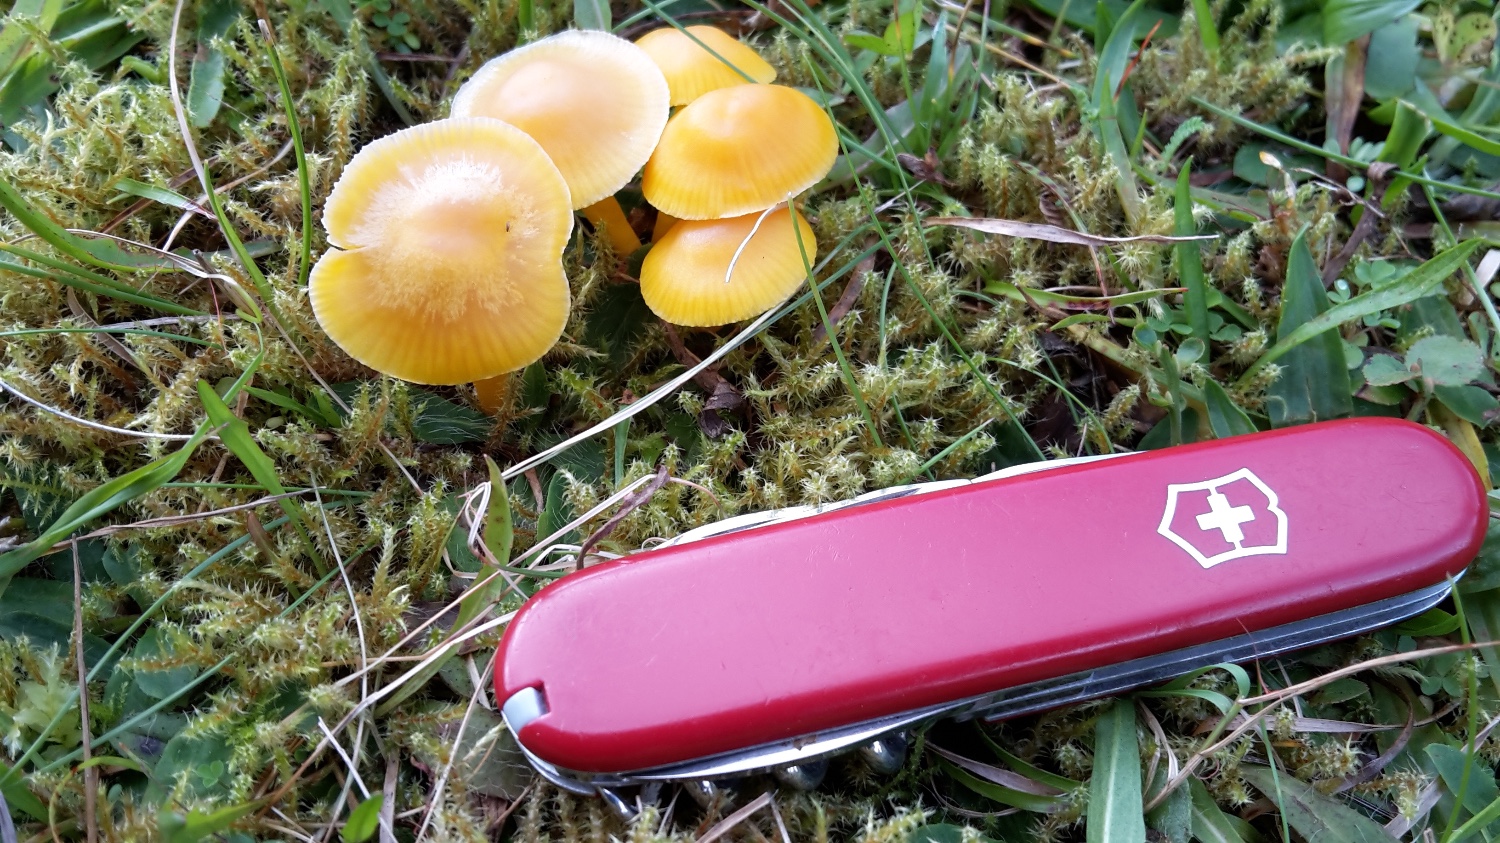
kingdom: Fungi
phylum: Basidiomycota
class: Agaricomycetes
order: Agaricales
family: Hygrophoraceae
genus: Hygrocybe
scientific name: Hygrocybe ceracea
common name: voksgul vokshat
